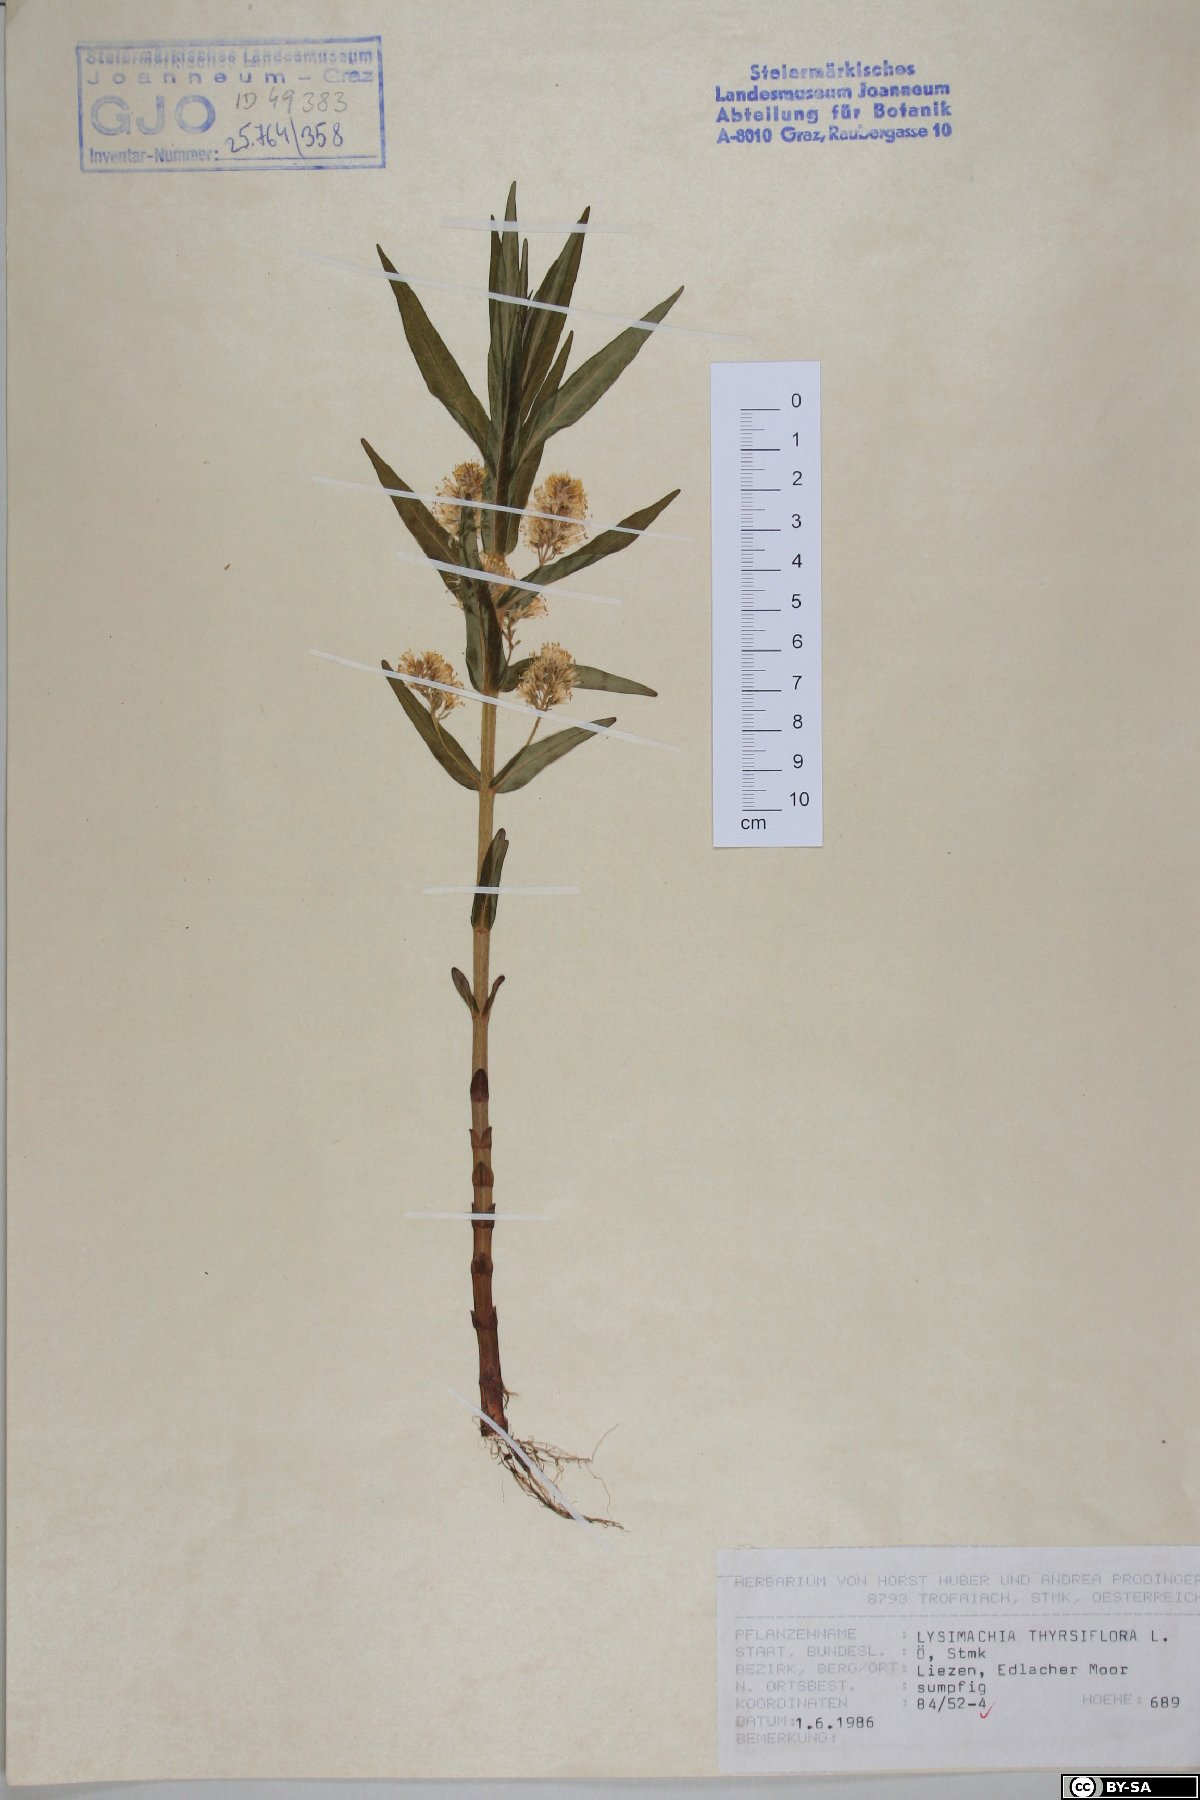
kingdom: Plantae
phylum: Tracheophyta
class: Magnoliopsida
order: Ericales
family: Primulaceae
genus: Lysimachia
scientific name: Lysimachia thyrsiflora
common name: Tufted loosestrife
